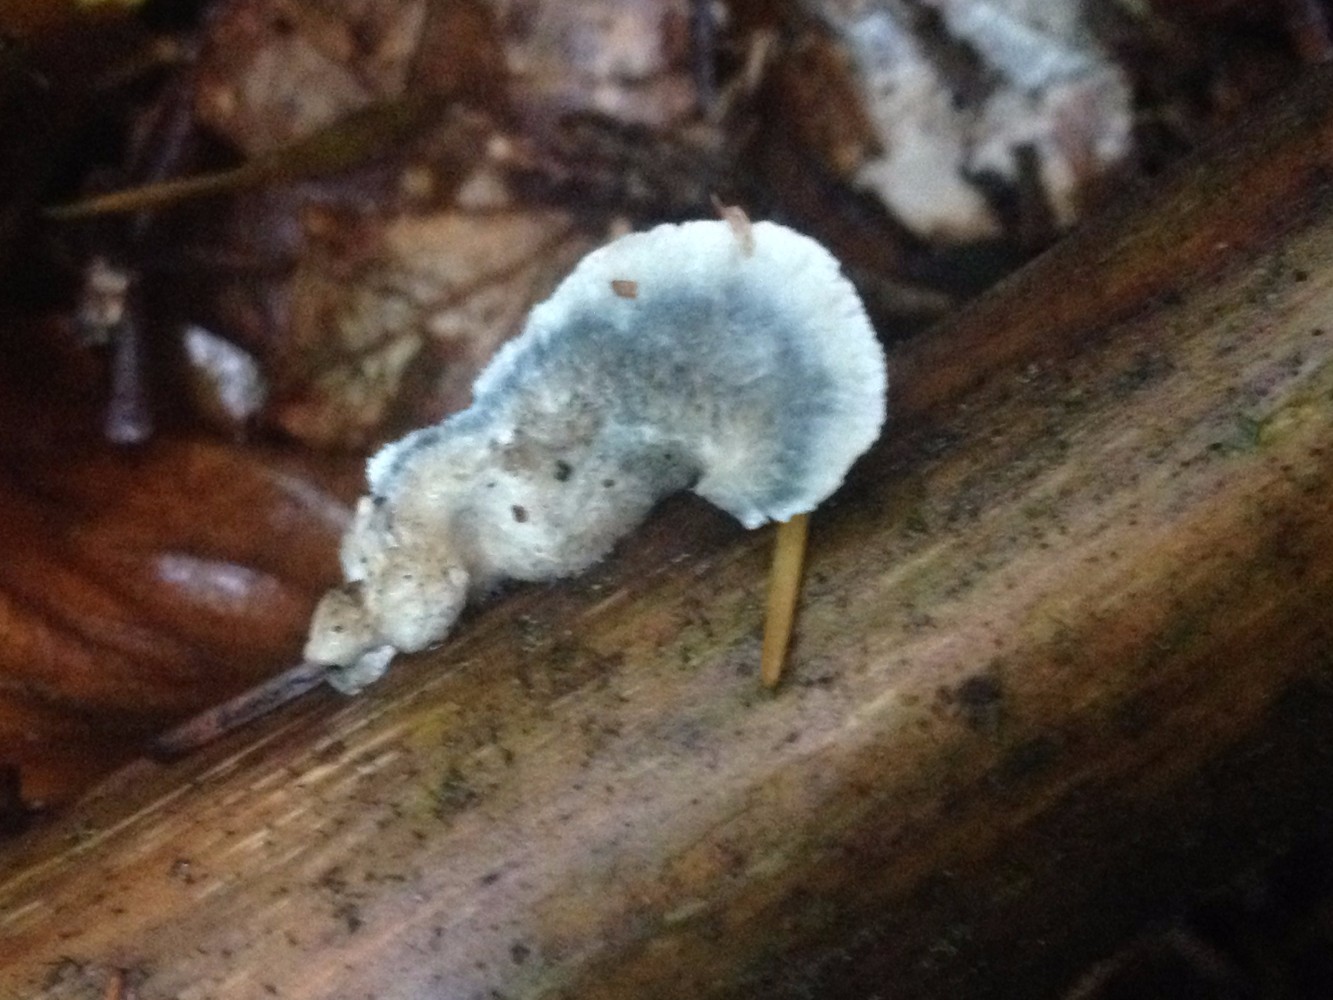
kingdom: Fungi
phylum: Basidiomycota
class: Agaricomycetes
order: Polyporales
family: Polyporaceae
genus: Cyanosporus
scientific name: Cyanosporus caesius
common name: blålig kødporesvamp
